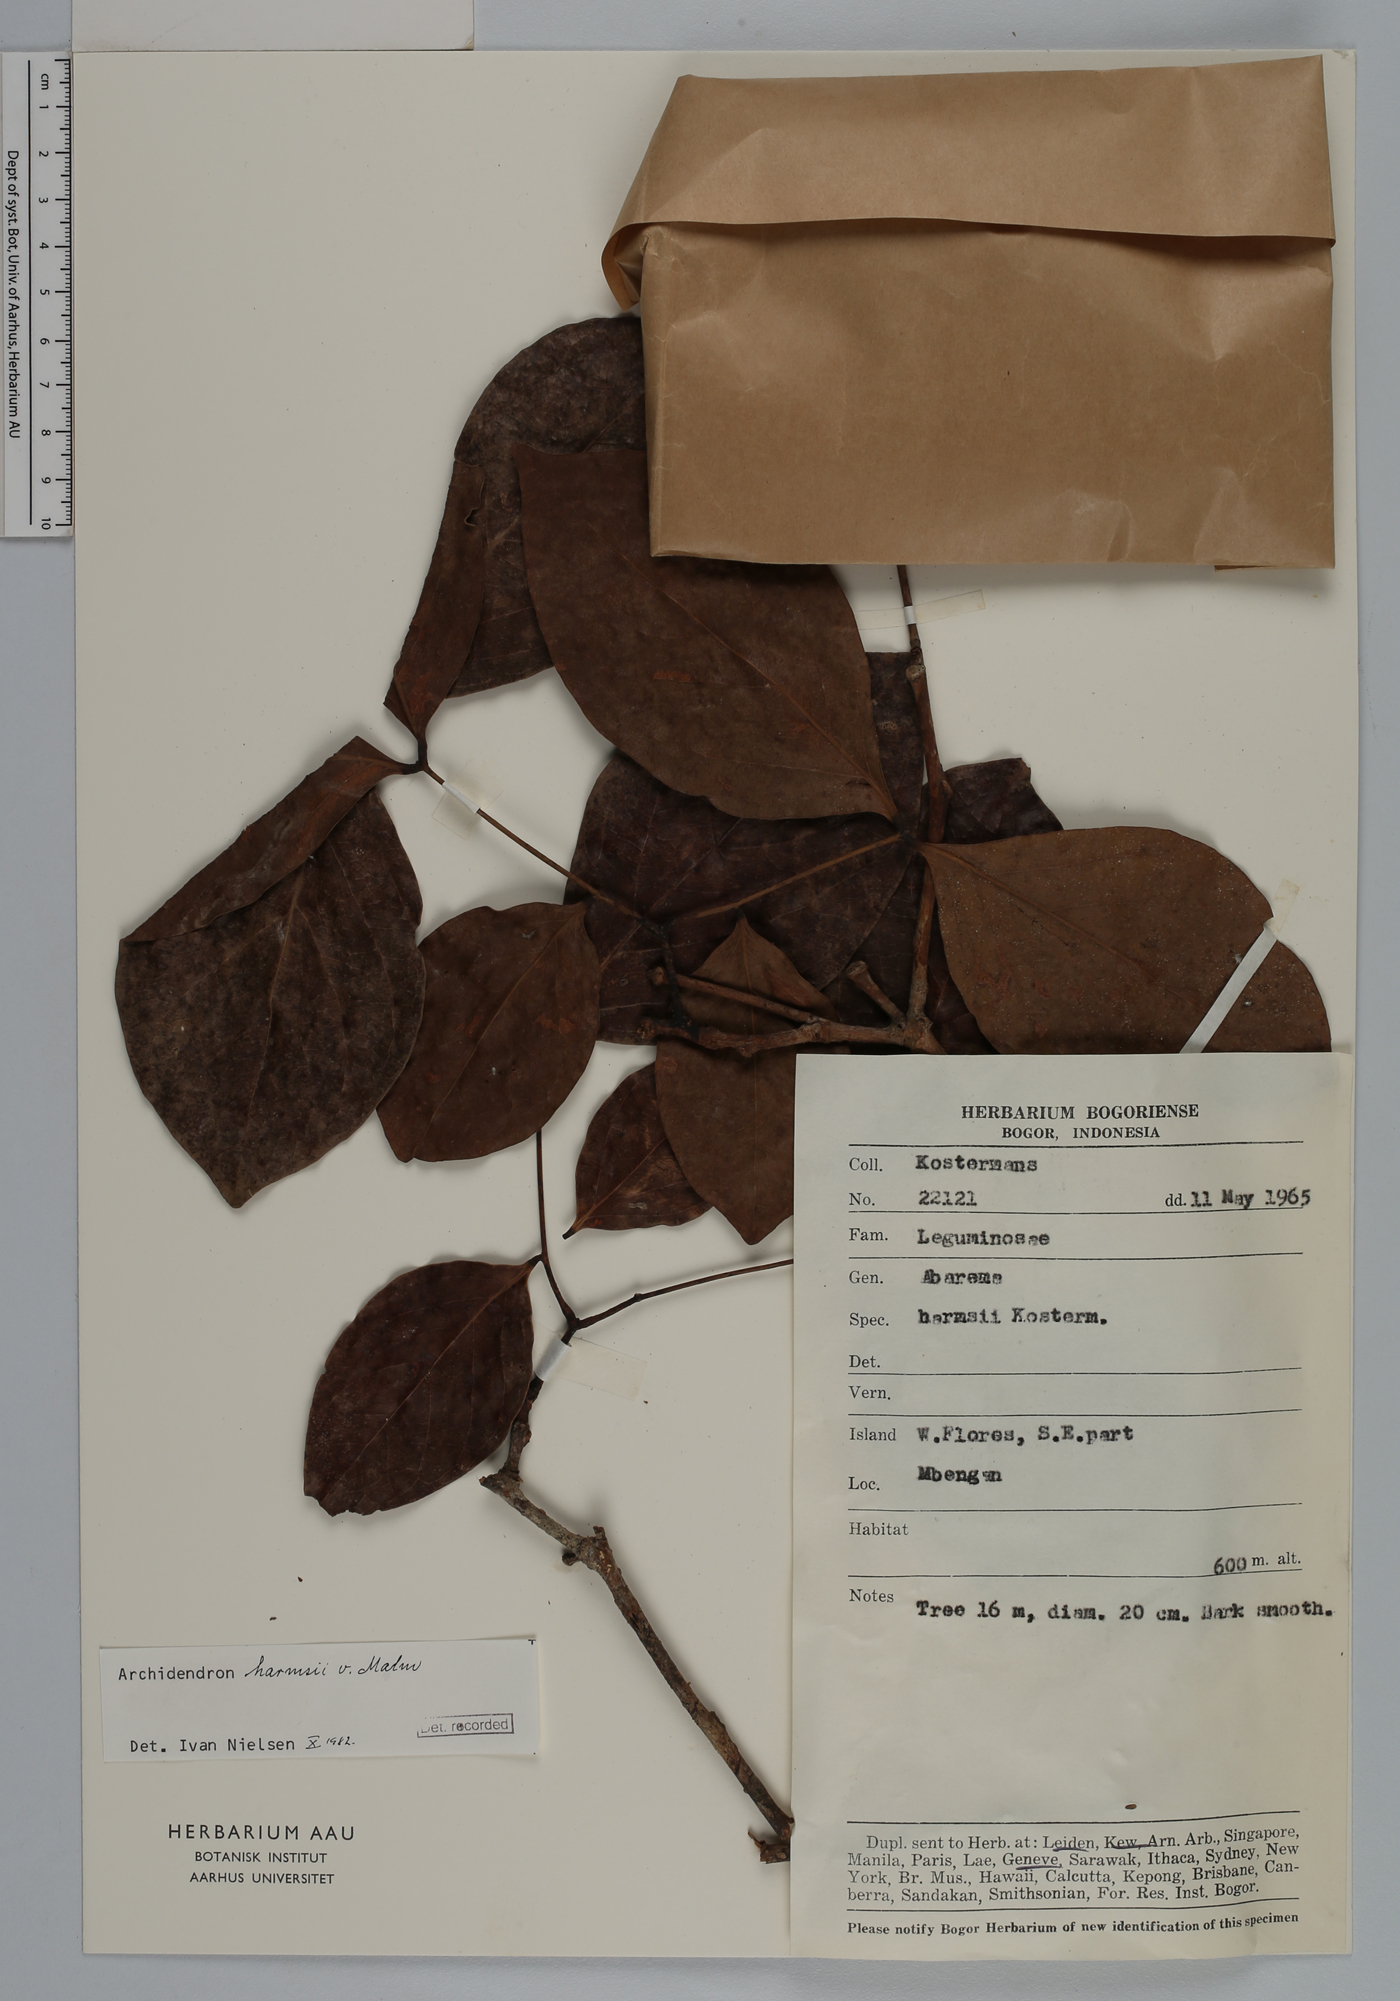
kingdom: Plantae
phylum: Tracheophyta
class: Magnoliopsida
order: Fabales
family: Fabaceae
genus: Archidendron
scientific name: Archidendron harmsii
